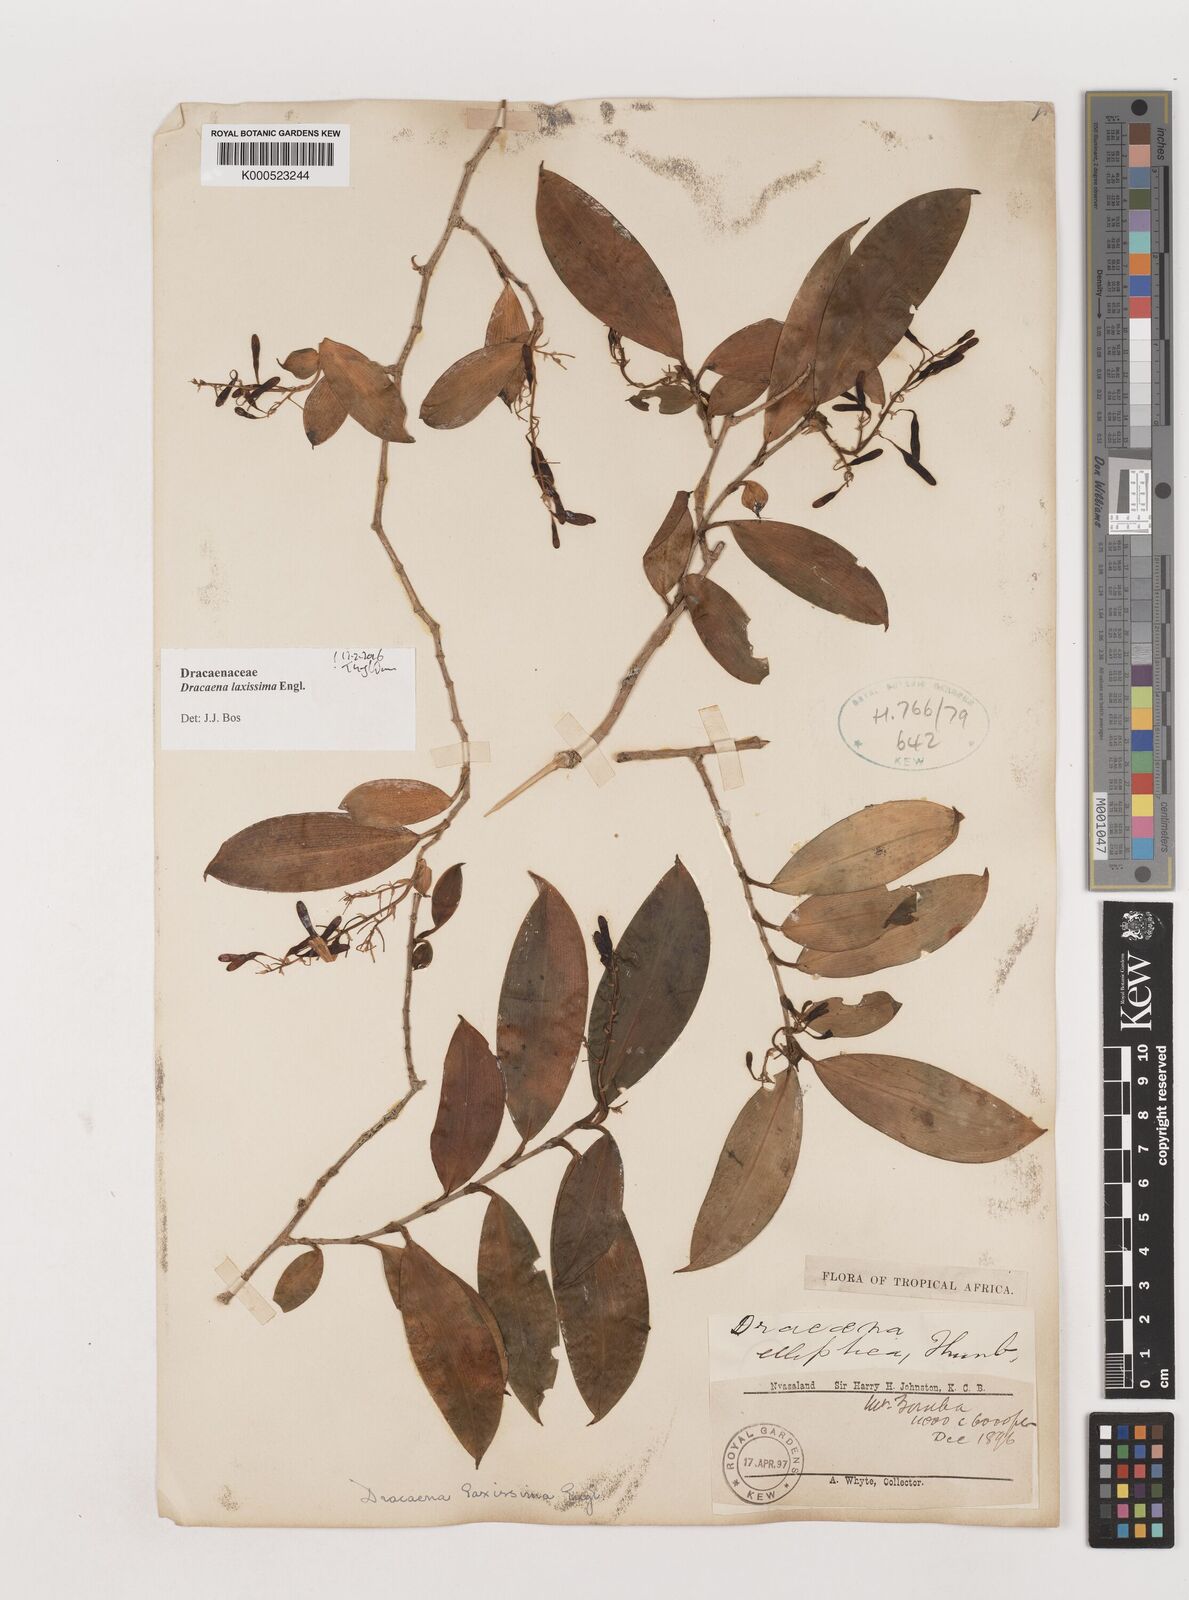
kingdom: Plantae
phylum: Tracheophyta
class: Liliopsida
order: Asparagales
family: Asparagaceae
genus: Dracaena
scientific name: Dracaena laxissima
